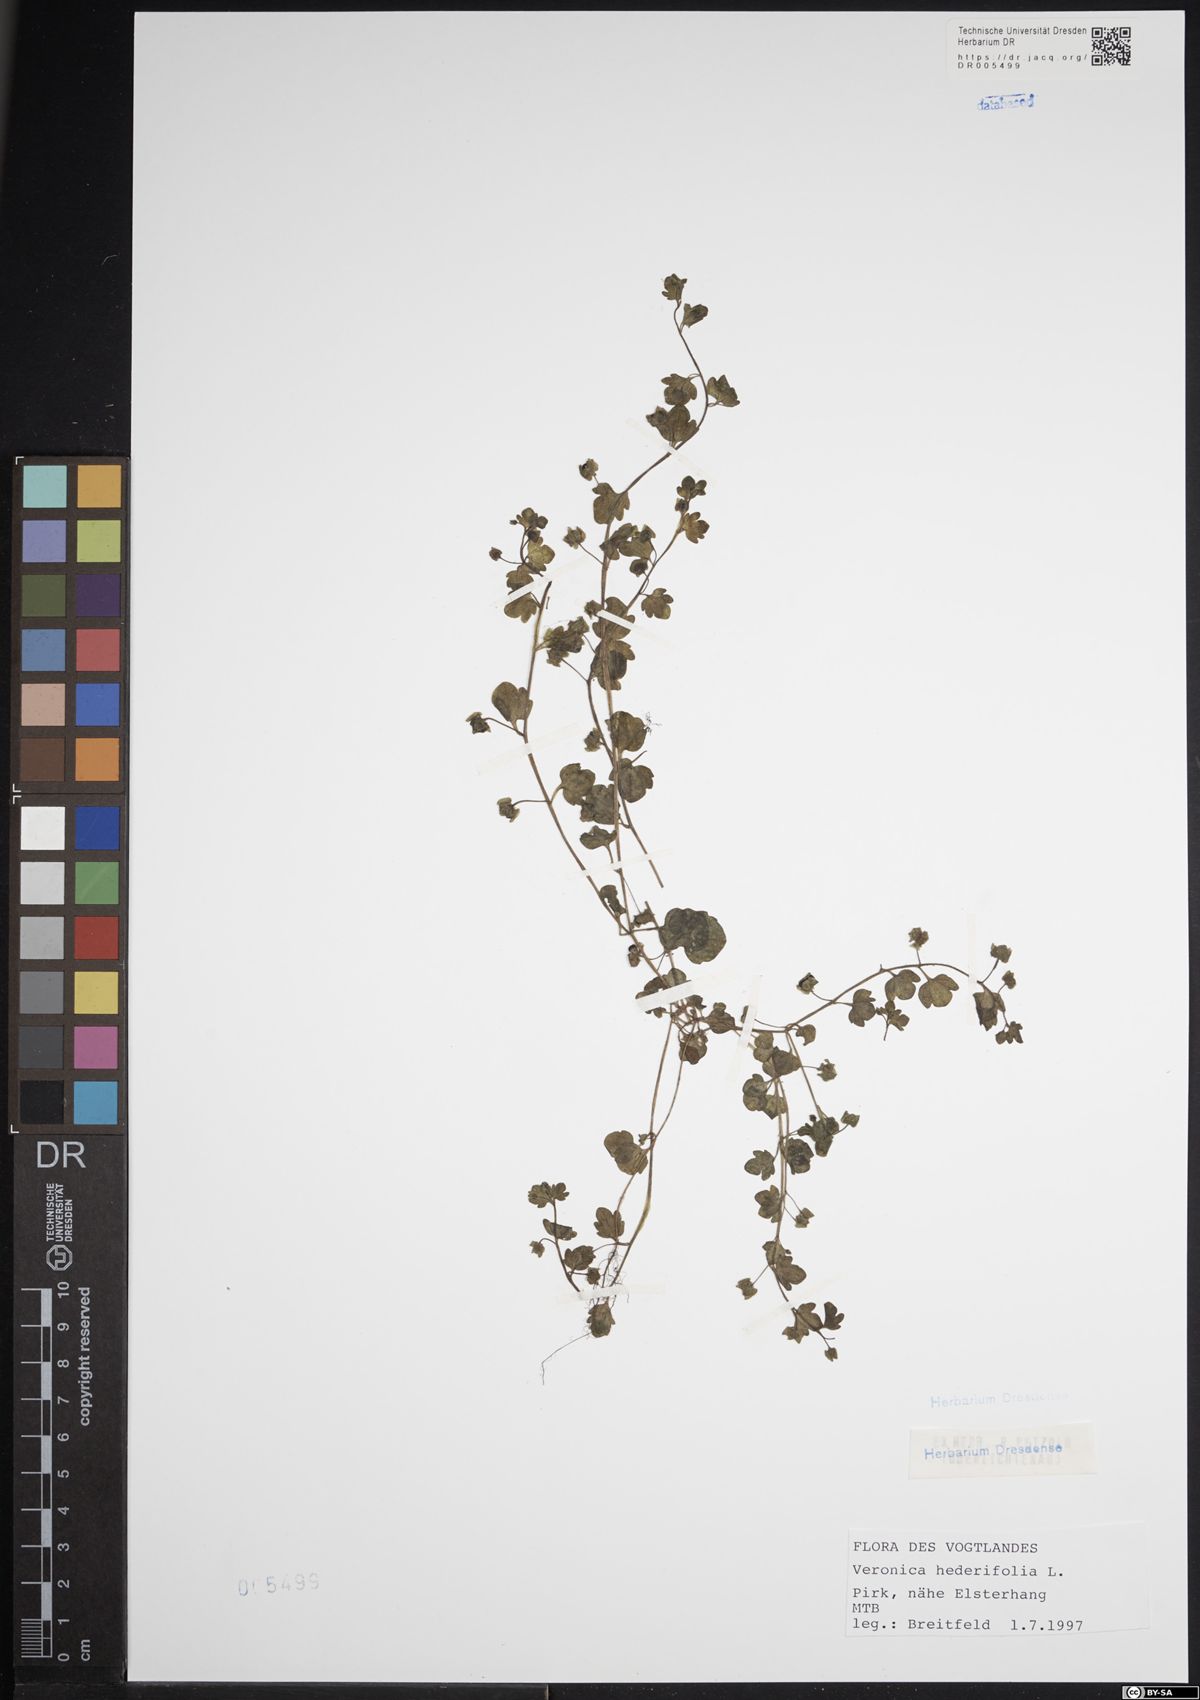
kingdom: Plantae
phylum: Tracheophyta
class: Magnoliopsida
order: Lamiales
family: Plantaginaceae
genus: Veronica
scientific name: Veronica hederifolia
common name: Ivy-leaved speedwell
